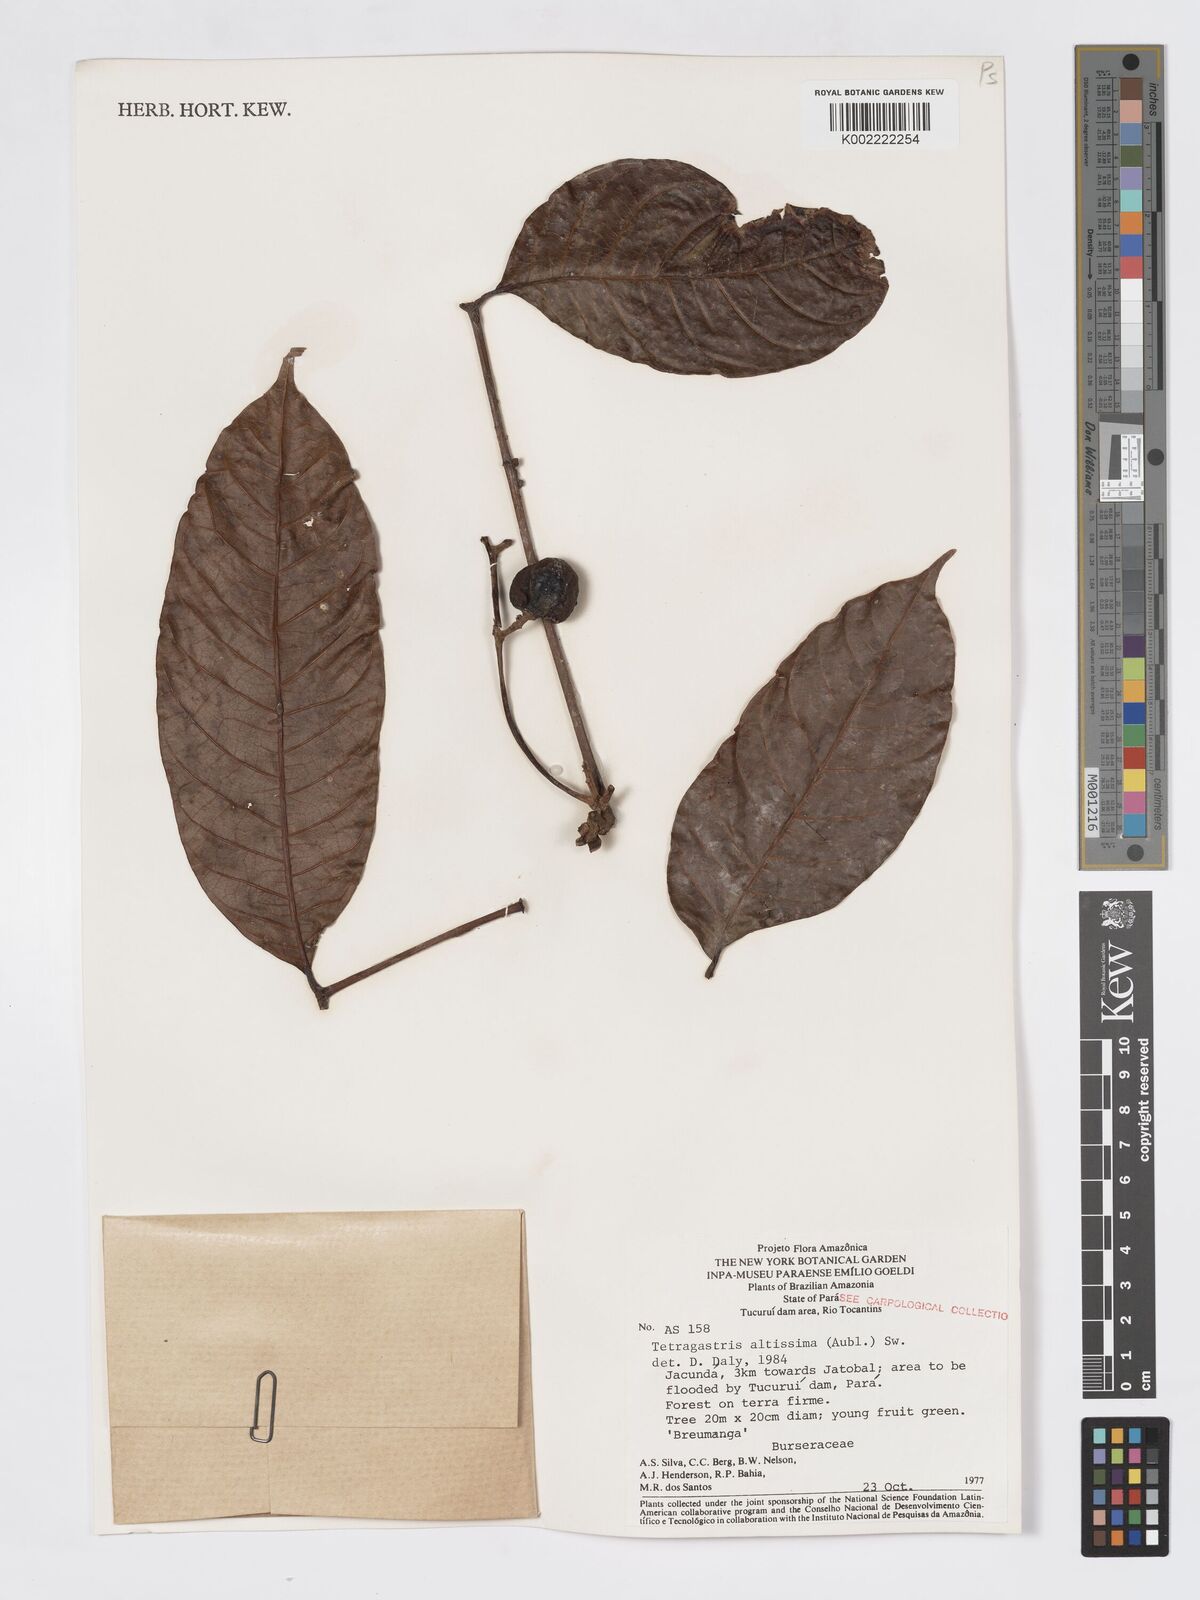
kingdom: Plantae
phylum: Tracheophyta
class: Magnoliopsida
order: Sapindales
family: Burseraceae
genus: Tetragastris
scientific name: Tetragastris altissima
